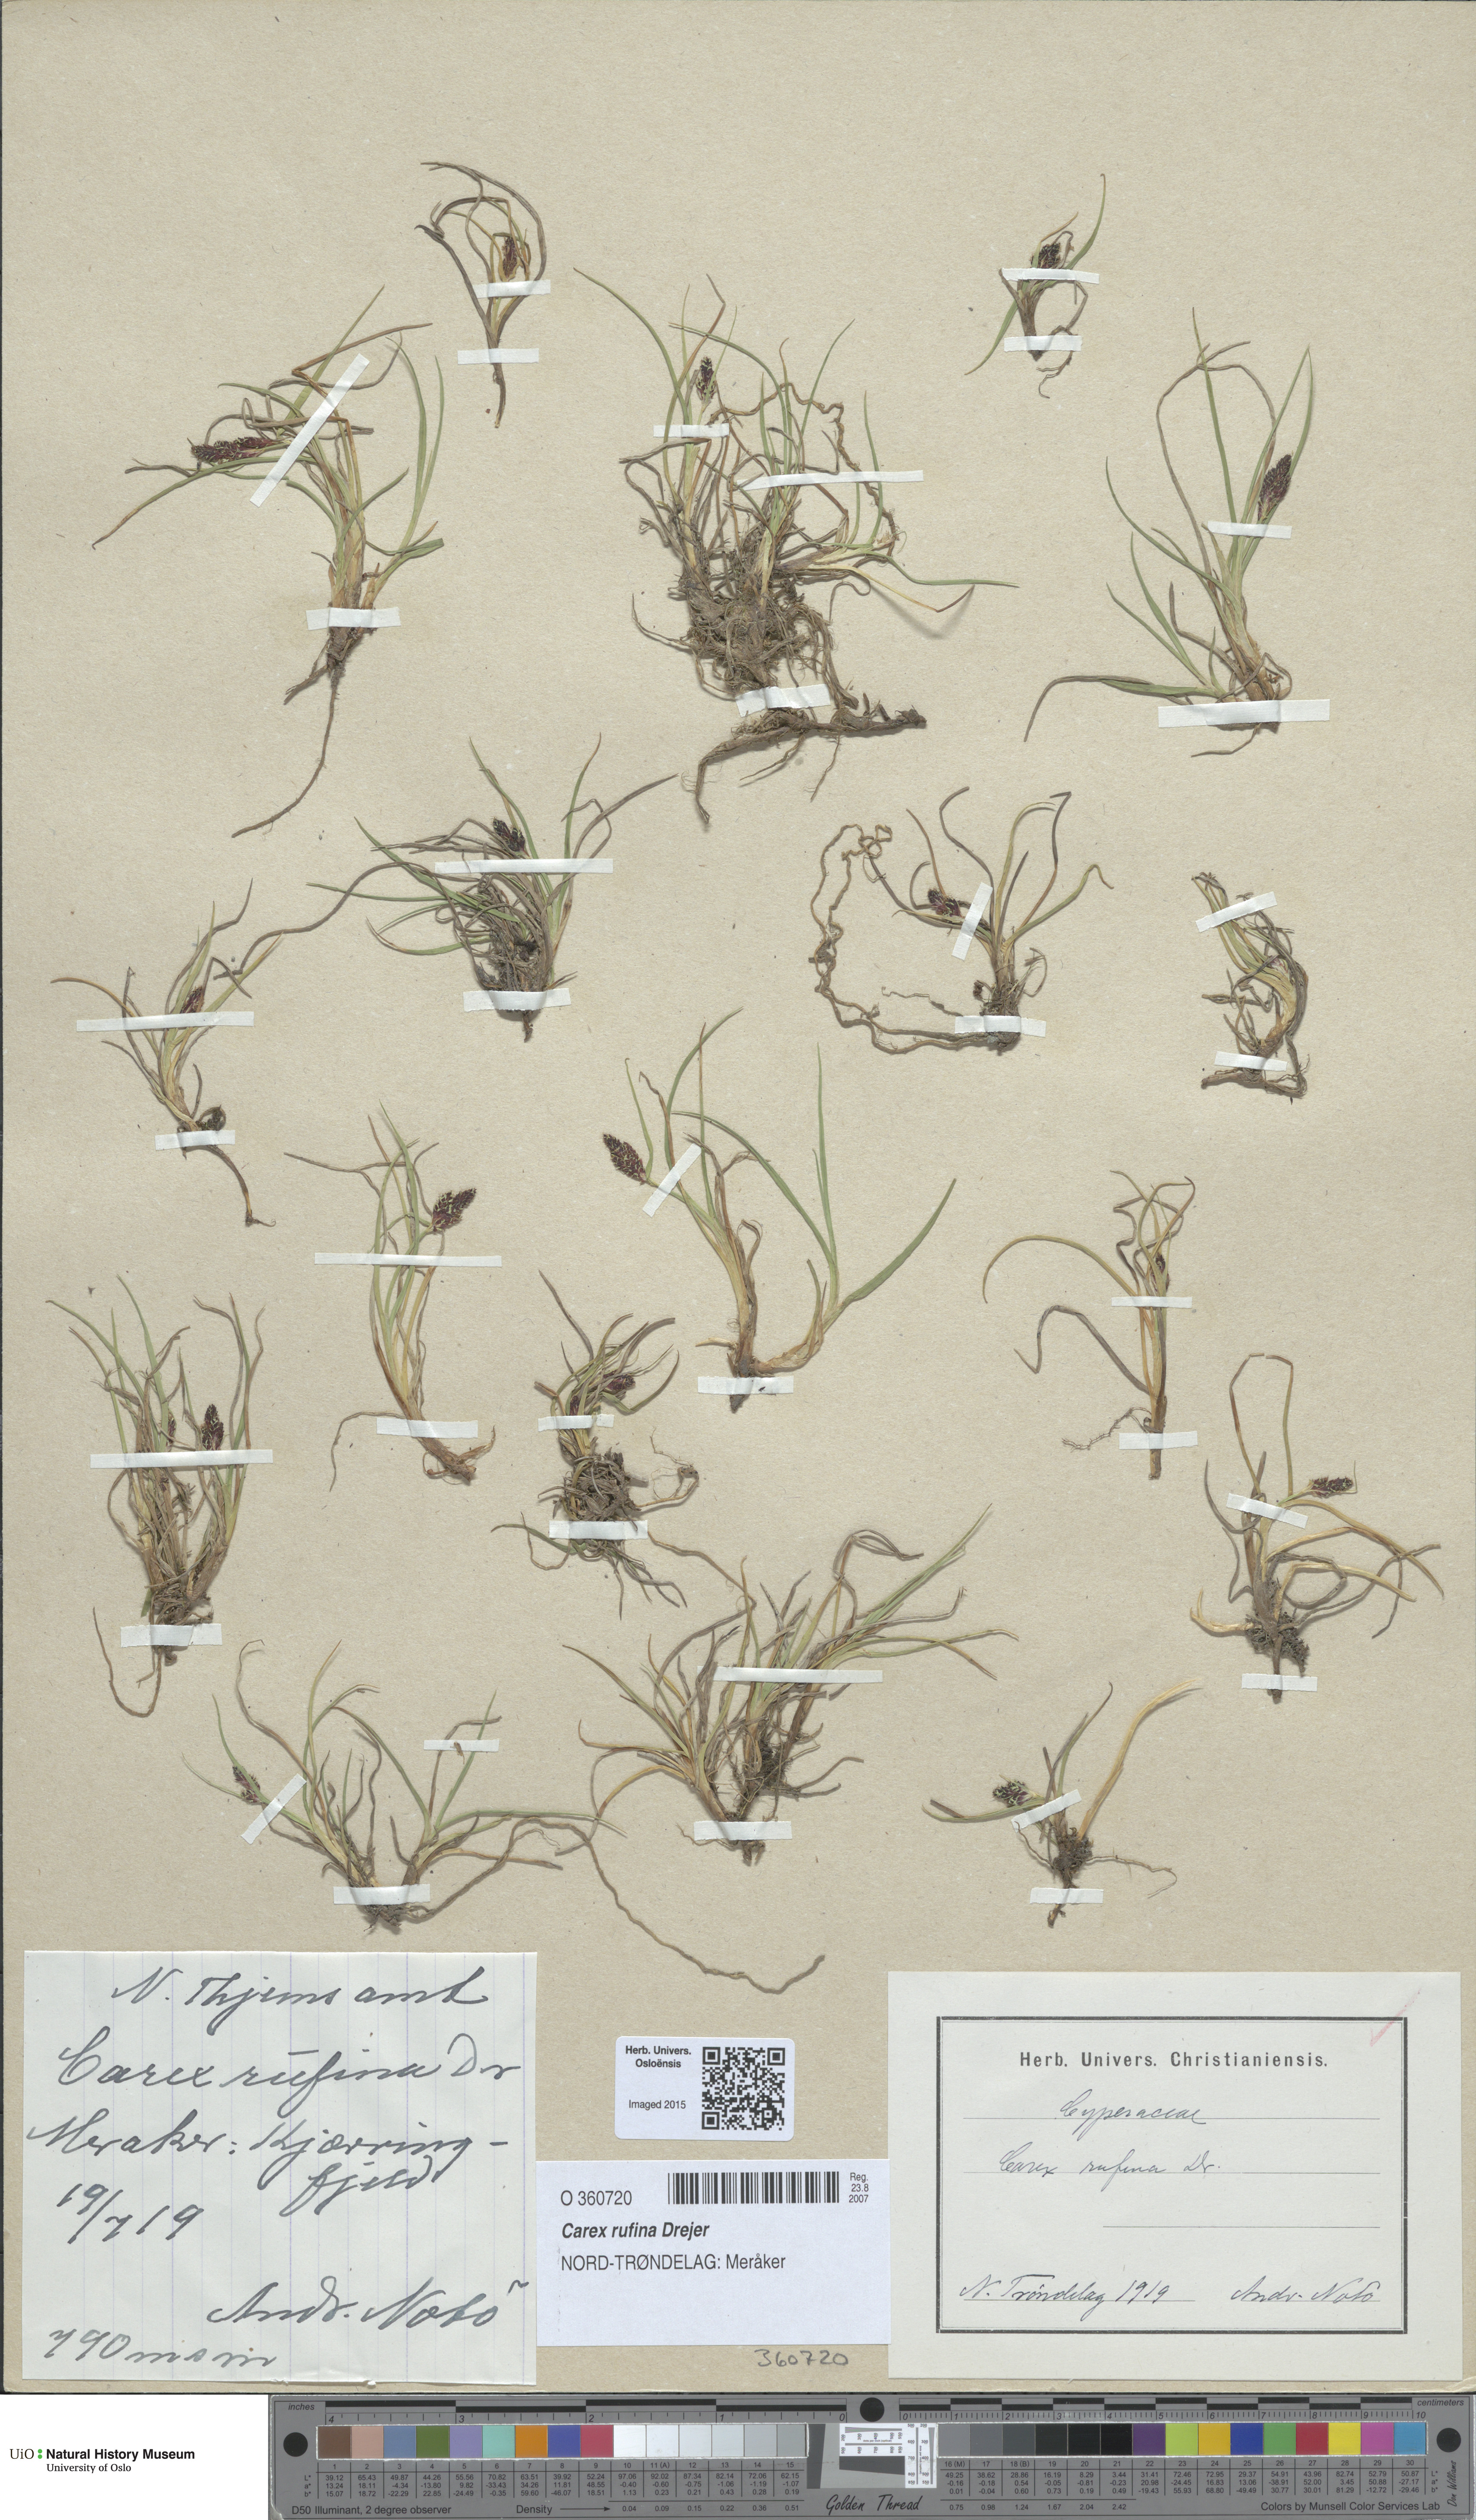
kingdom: Plantae
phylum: Tracheophyta
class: Liliopsida
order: Poales
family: Cyperaceae
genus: Carex
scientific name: Carex rufina
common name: Reddish sedge
